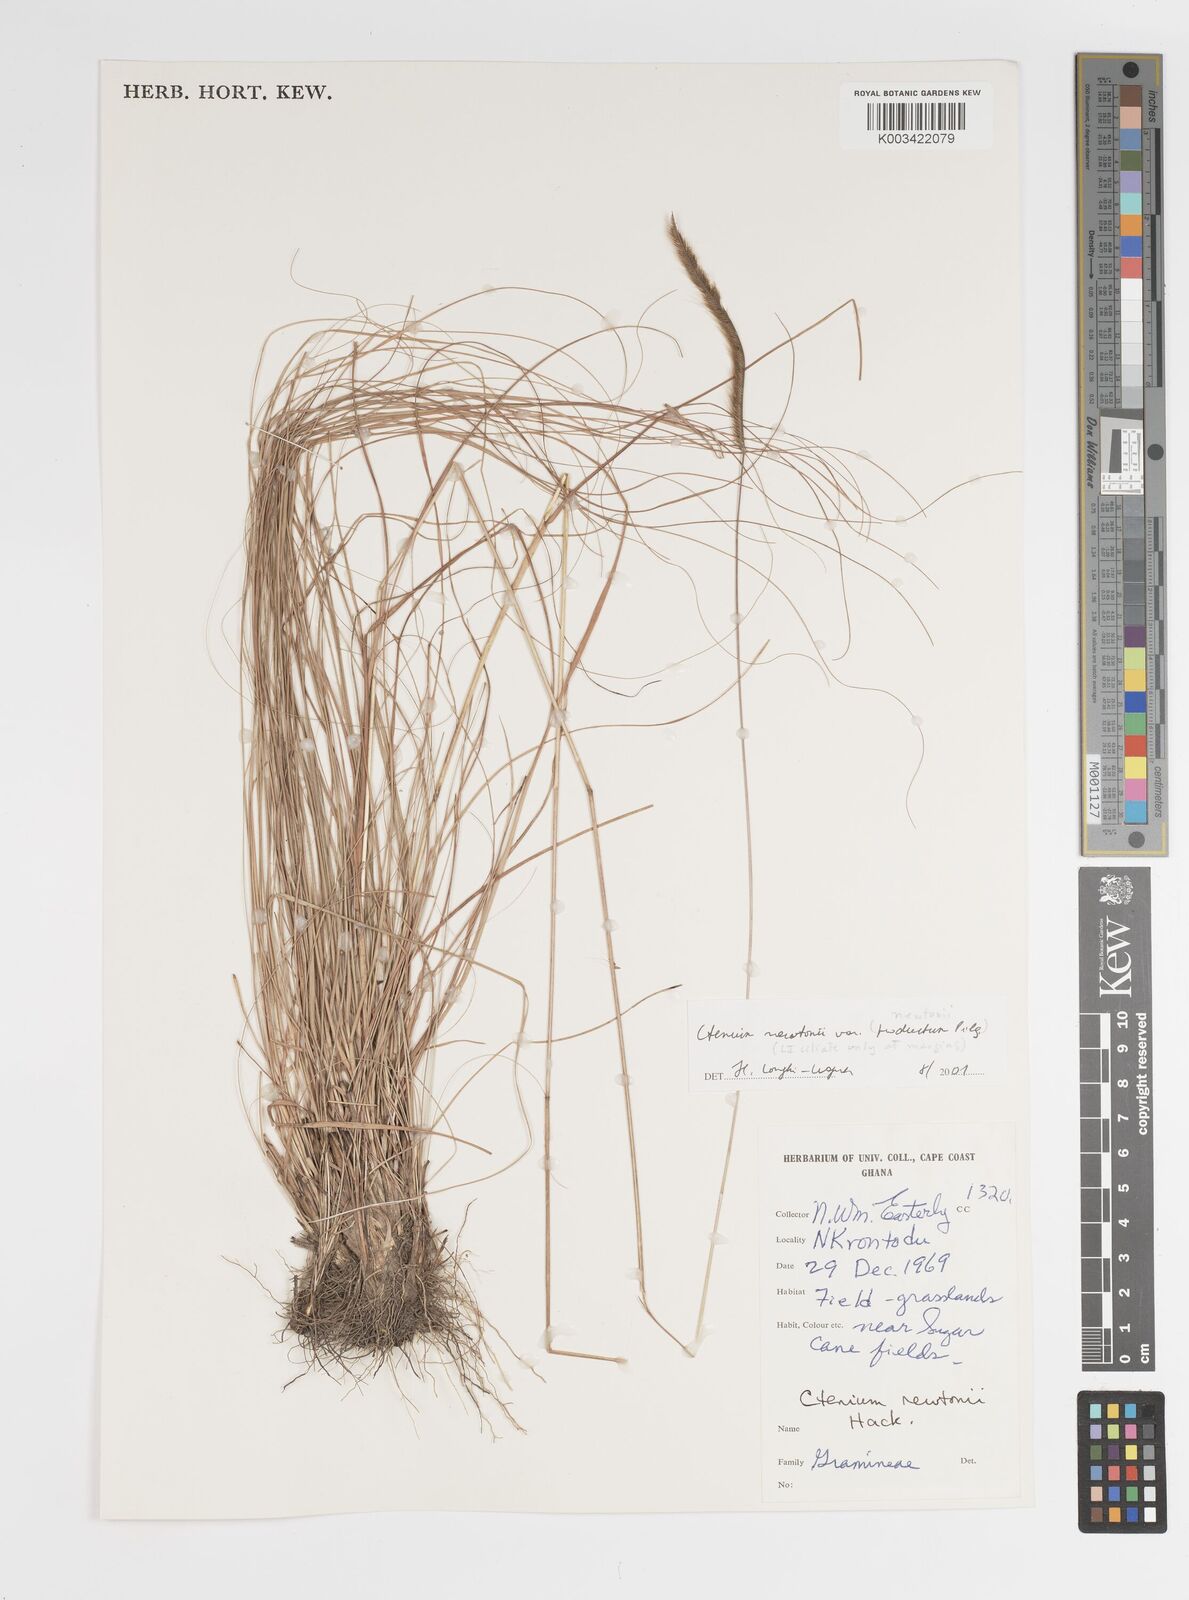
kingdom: Plantae
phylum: Tracheophyta
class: Liliopsida
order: Poales
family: Poaceae
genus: Ctenium
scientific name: Ctenium newtonii
